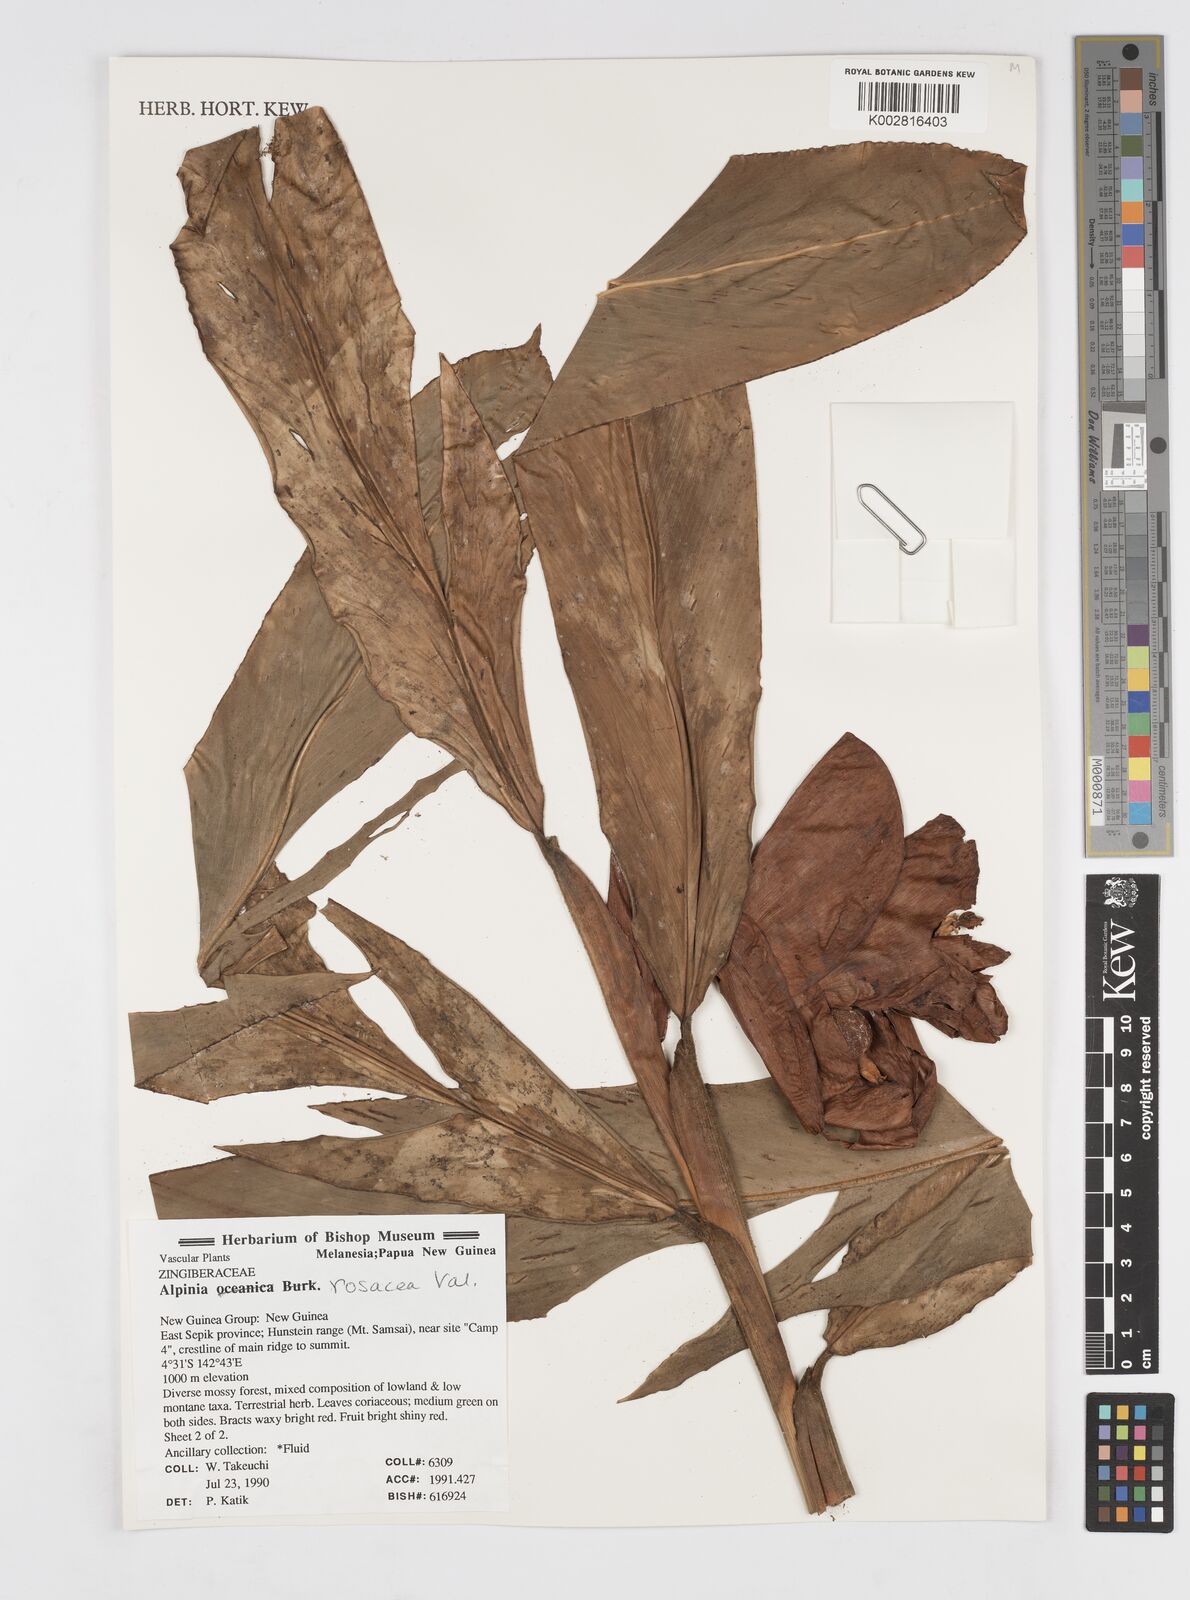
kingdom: Plantae
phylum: Tracheophyta
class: Liliopsida
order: Zingiberales
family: Zingiberaceae
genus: Alpinia
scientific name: Alpinia rosacea
